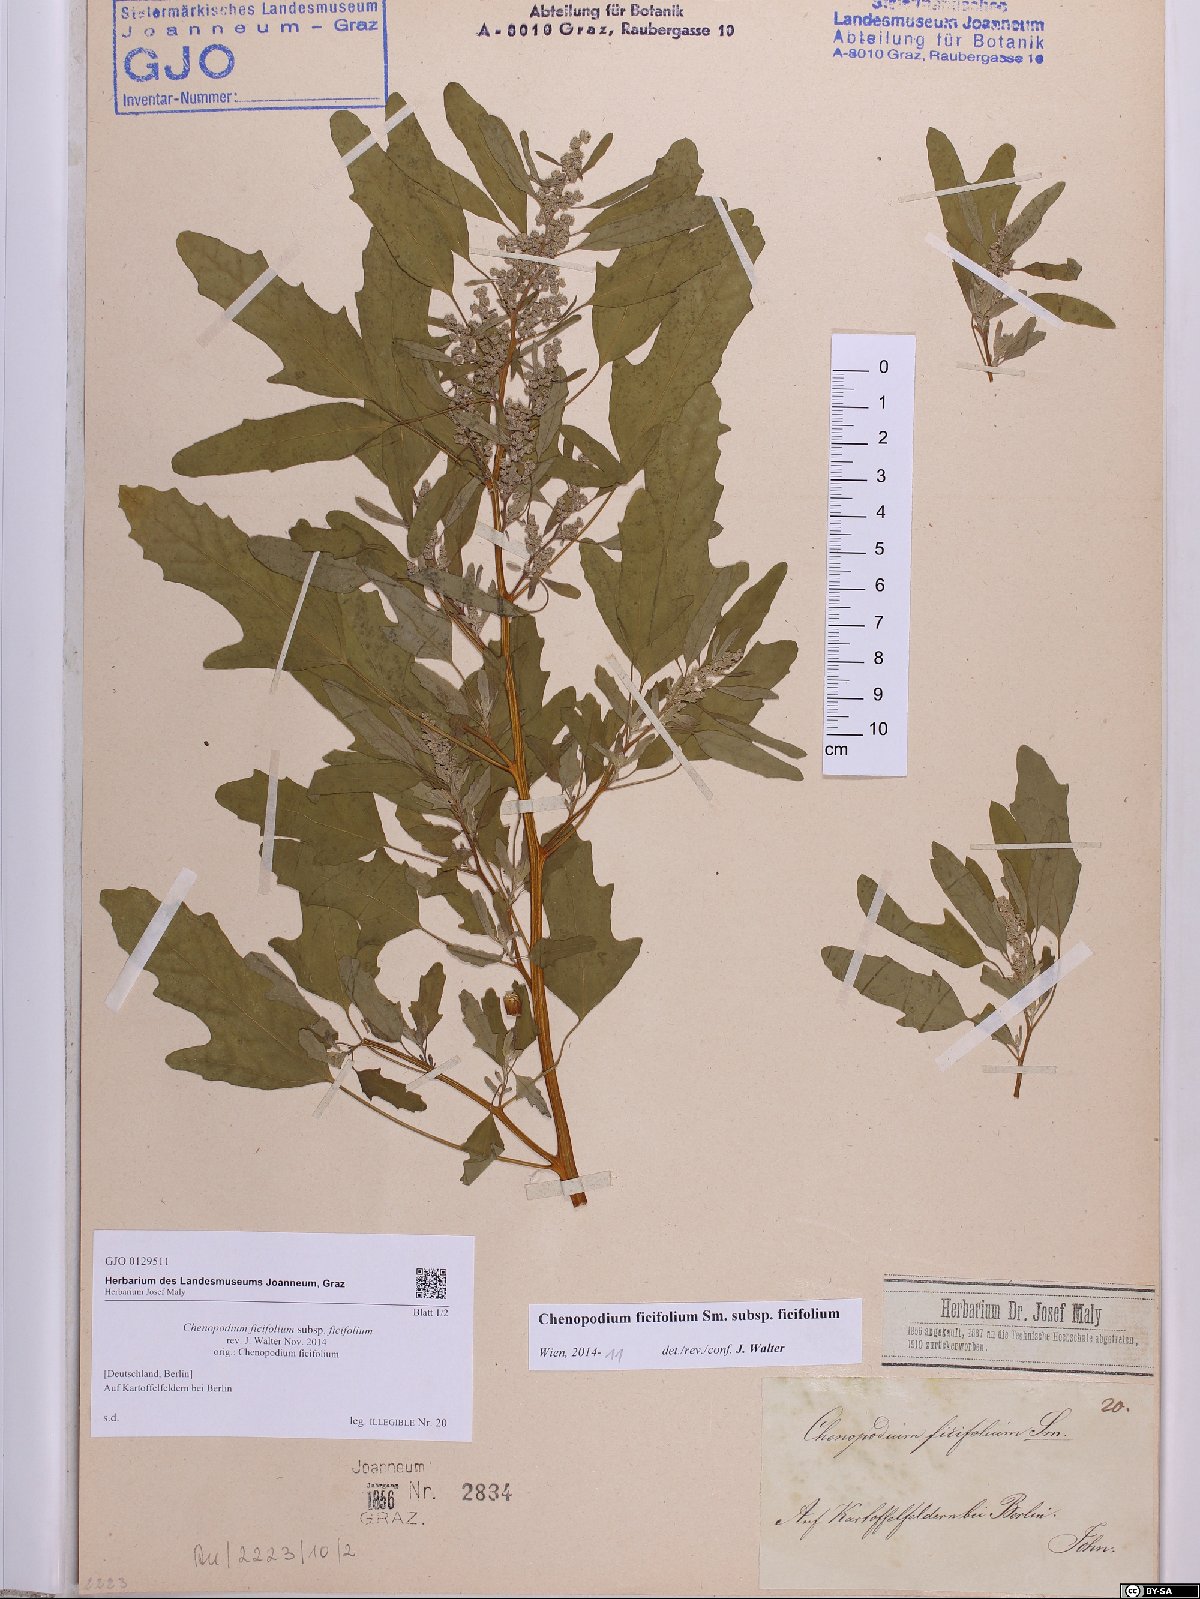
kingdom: Plantae
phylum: Tracheophyta
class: Magnoliopsida
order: Caryophyllales
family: Amaranthaceae
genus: Chenopodium
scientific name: Chenopodium ficifolium
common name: Fig-leaved goosefoot
